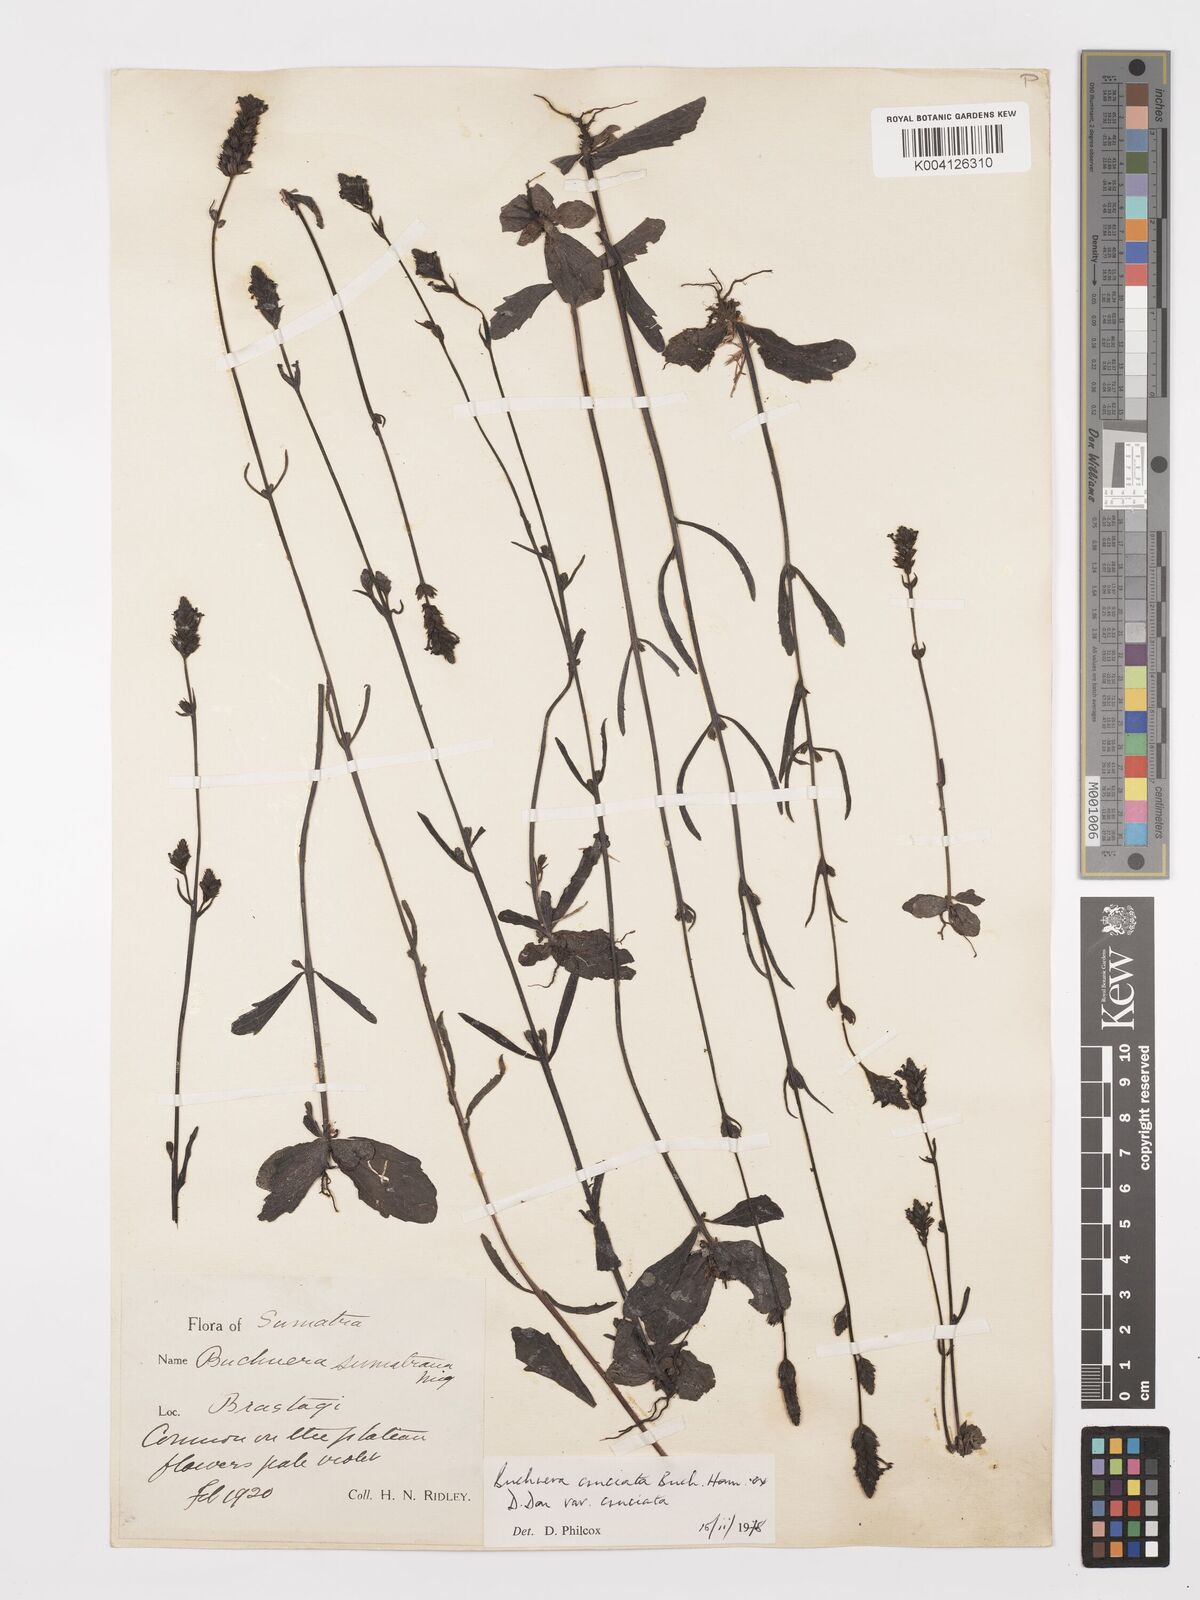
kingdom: Plantae
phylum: Tracheophyta
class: Magnoliopsida
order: Lamiales
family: Orobanchaceae
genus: Buchnera
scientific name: Buchnera cruciata
